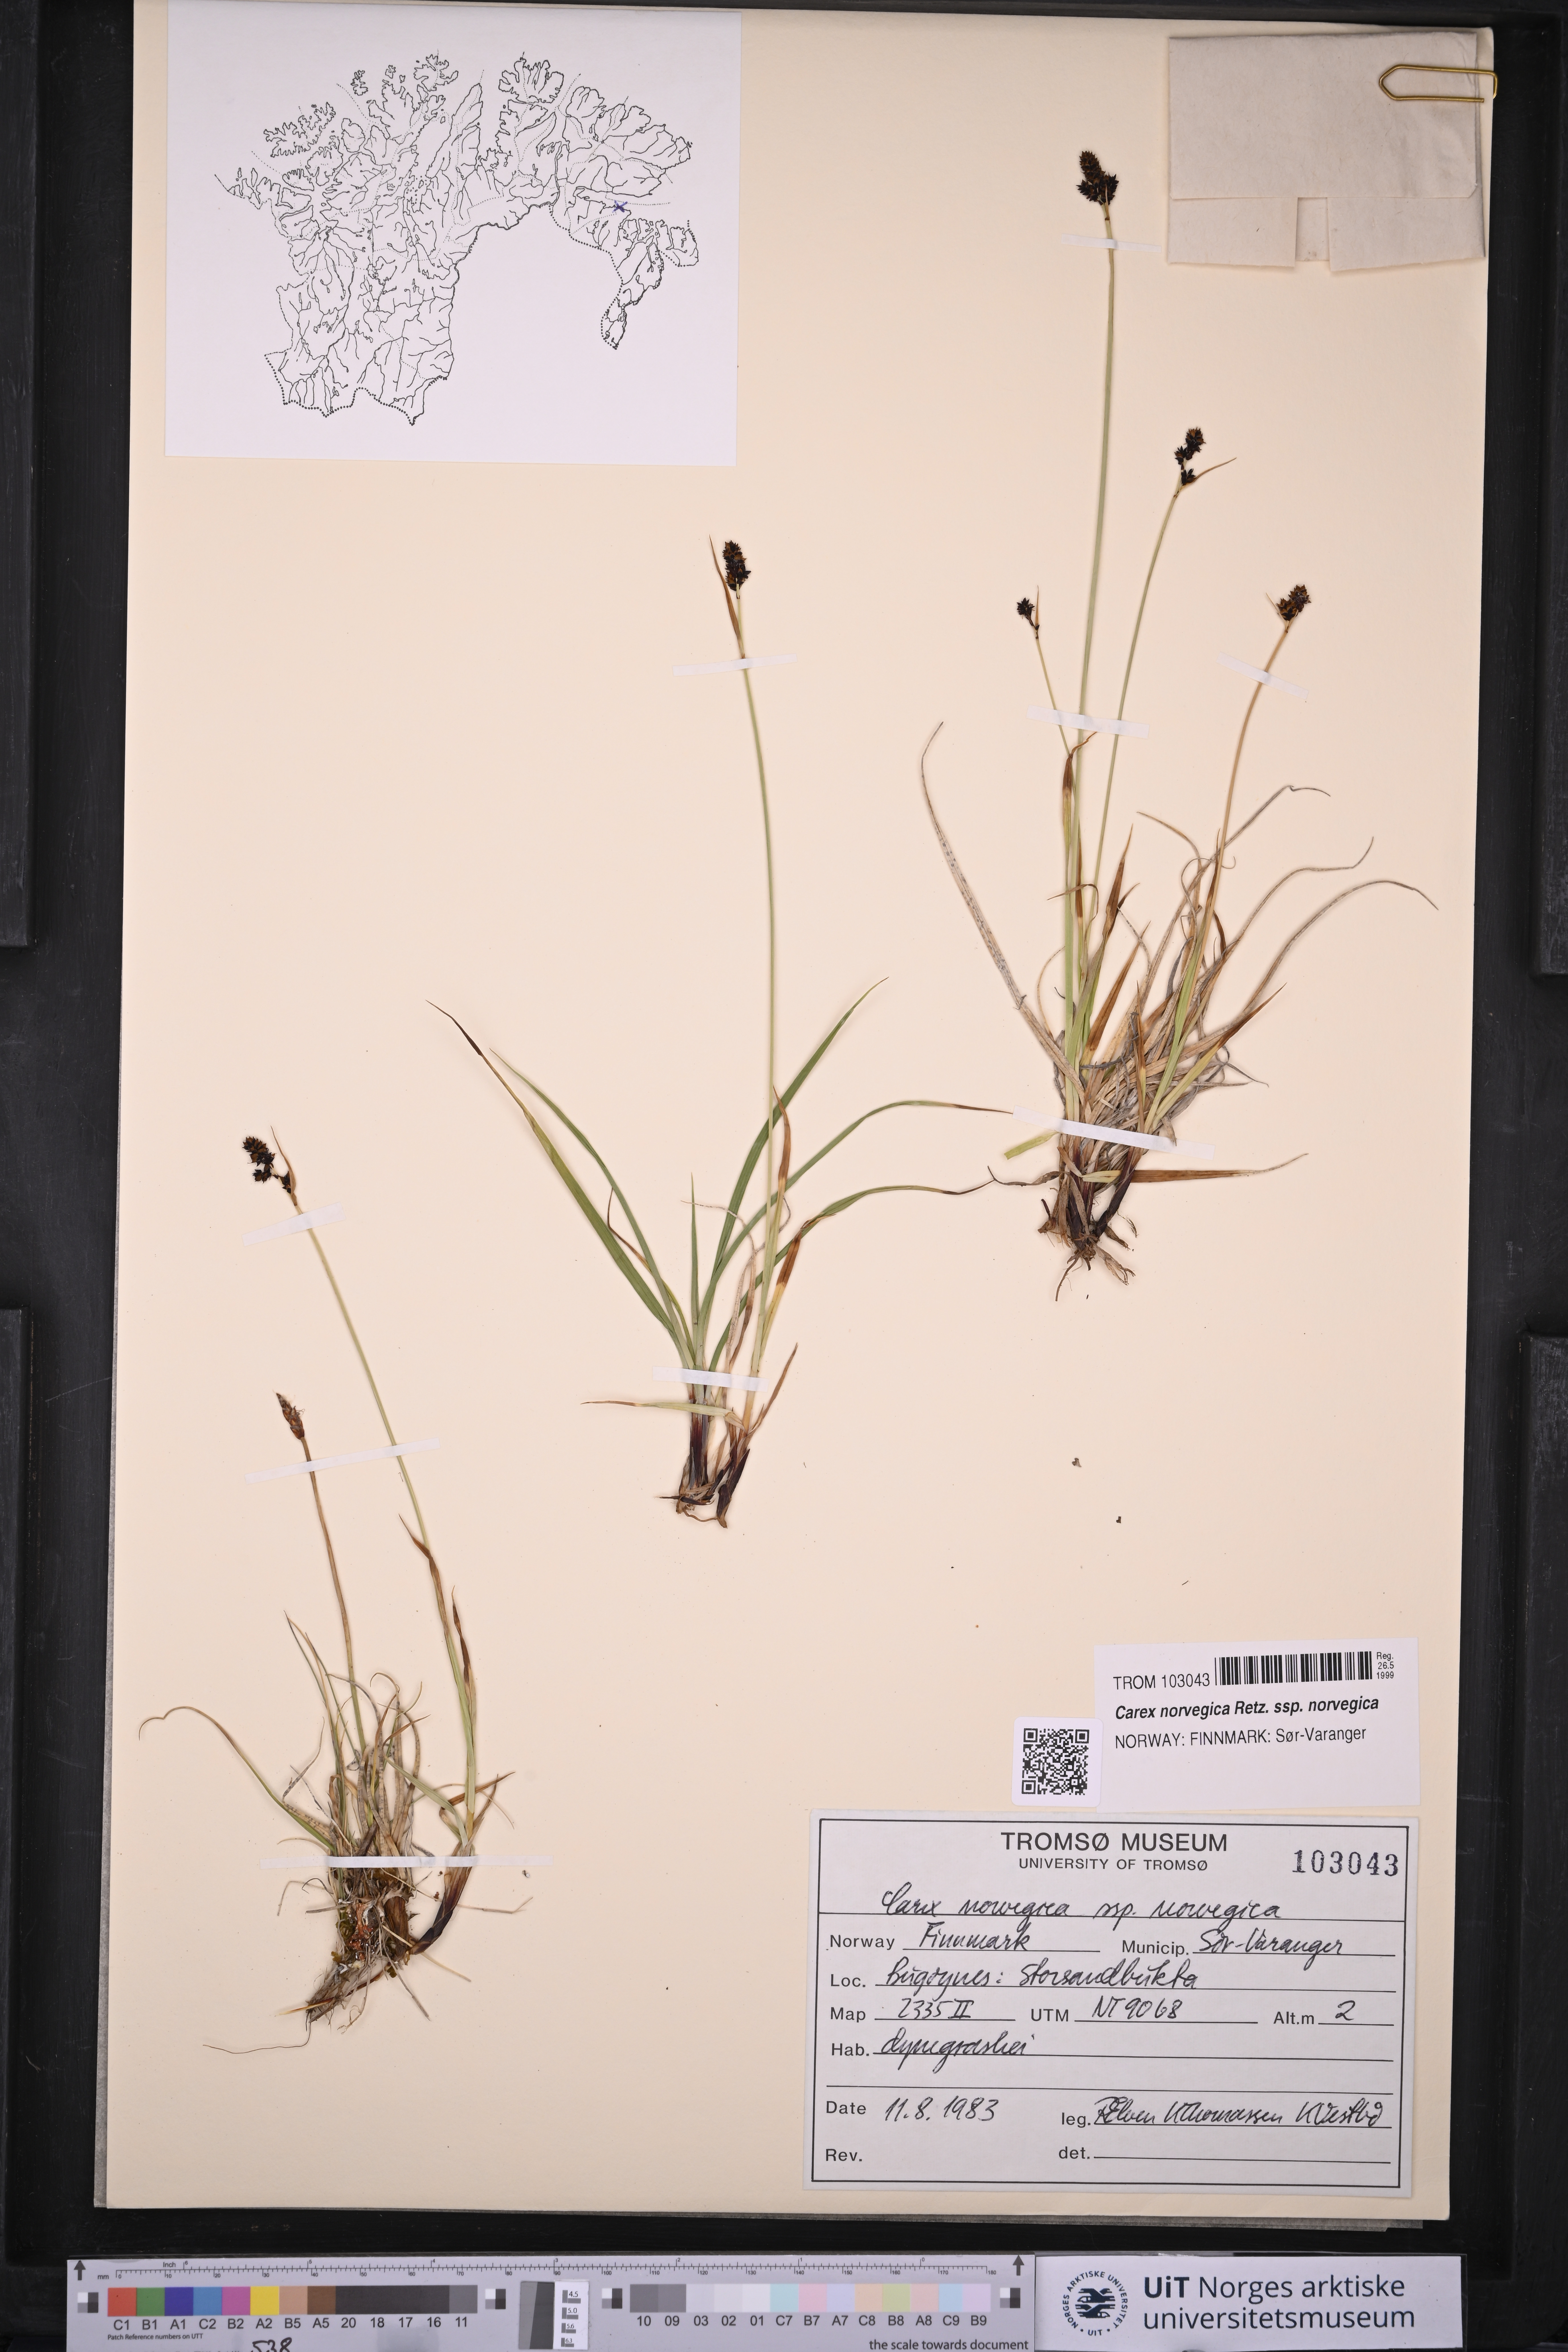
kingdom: Plantae
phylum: Tracheophyta
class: Liliopsida
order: Poales
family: Cyperaceae
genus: Carex
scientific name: Carex norvegica
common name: Close-headed alpine-sedge
